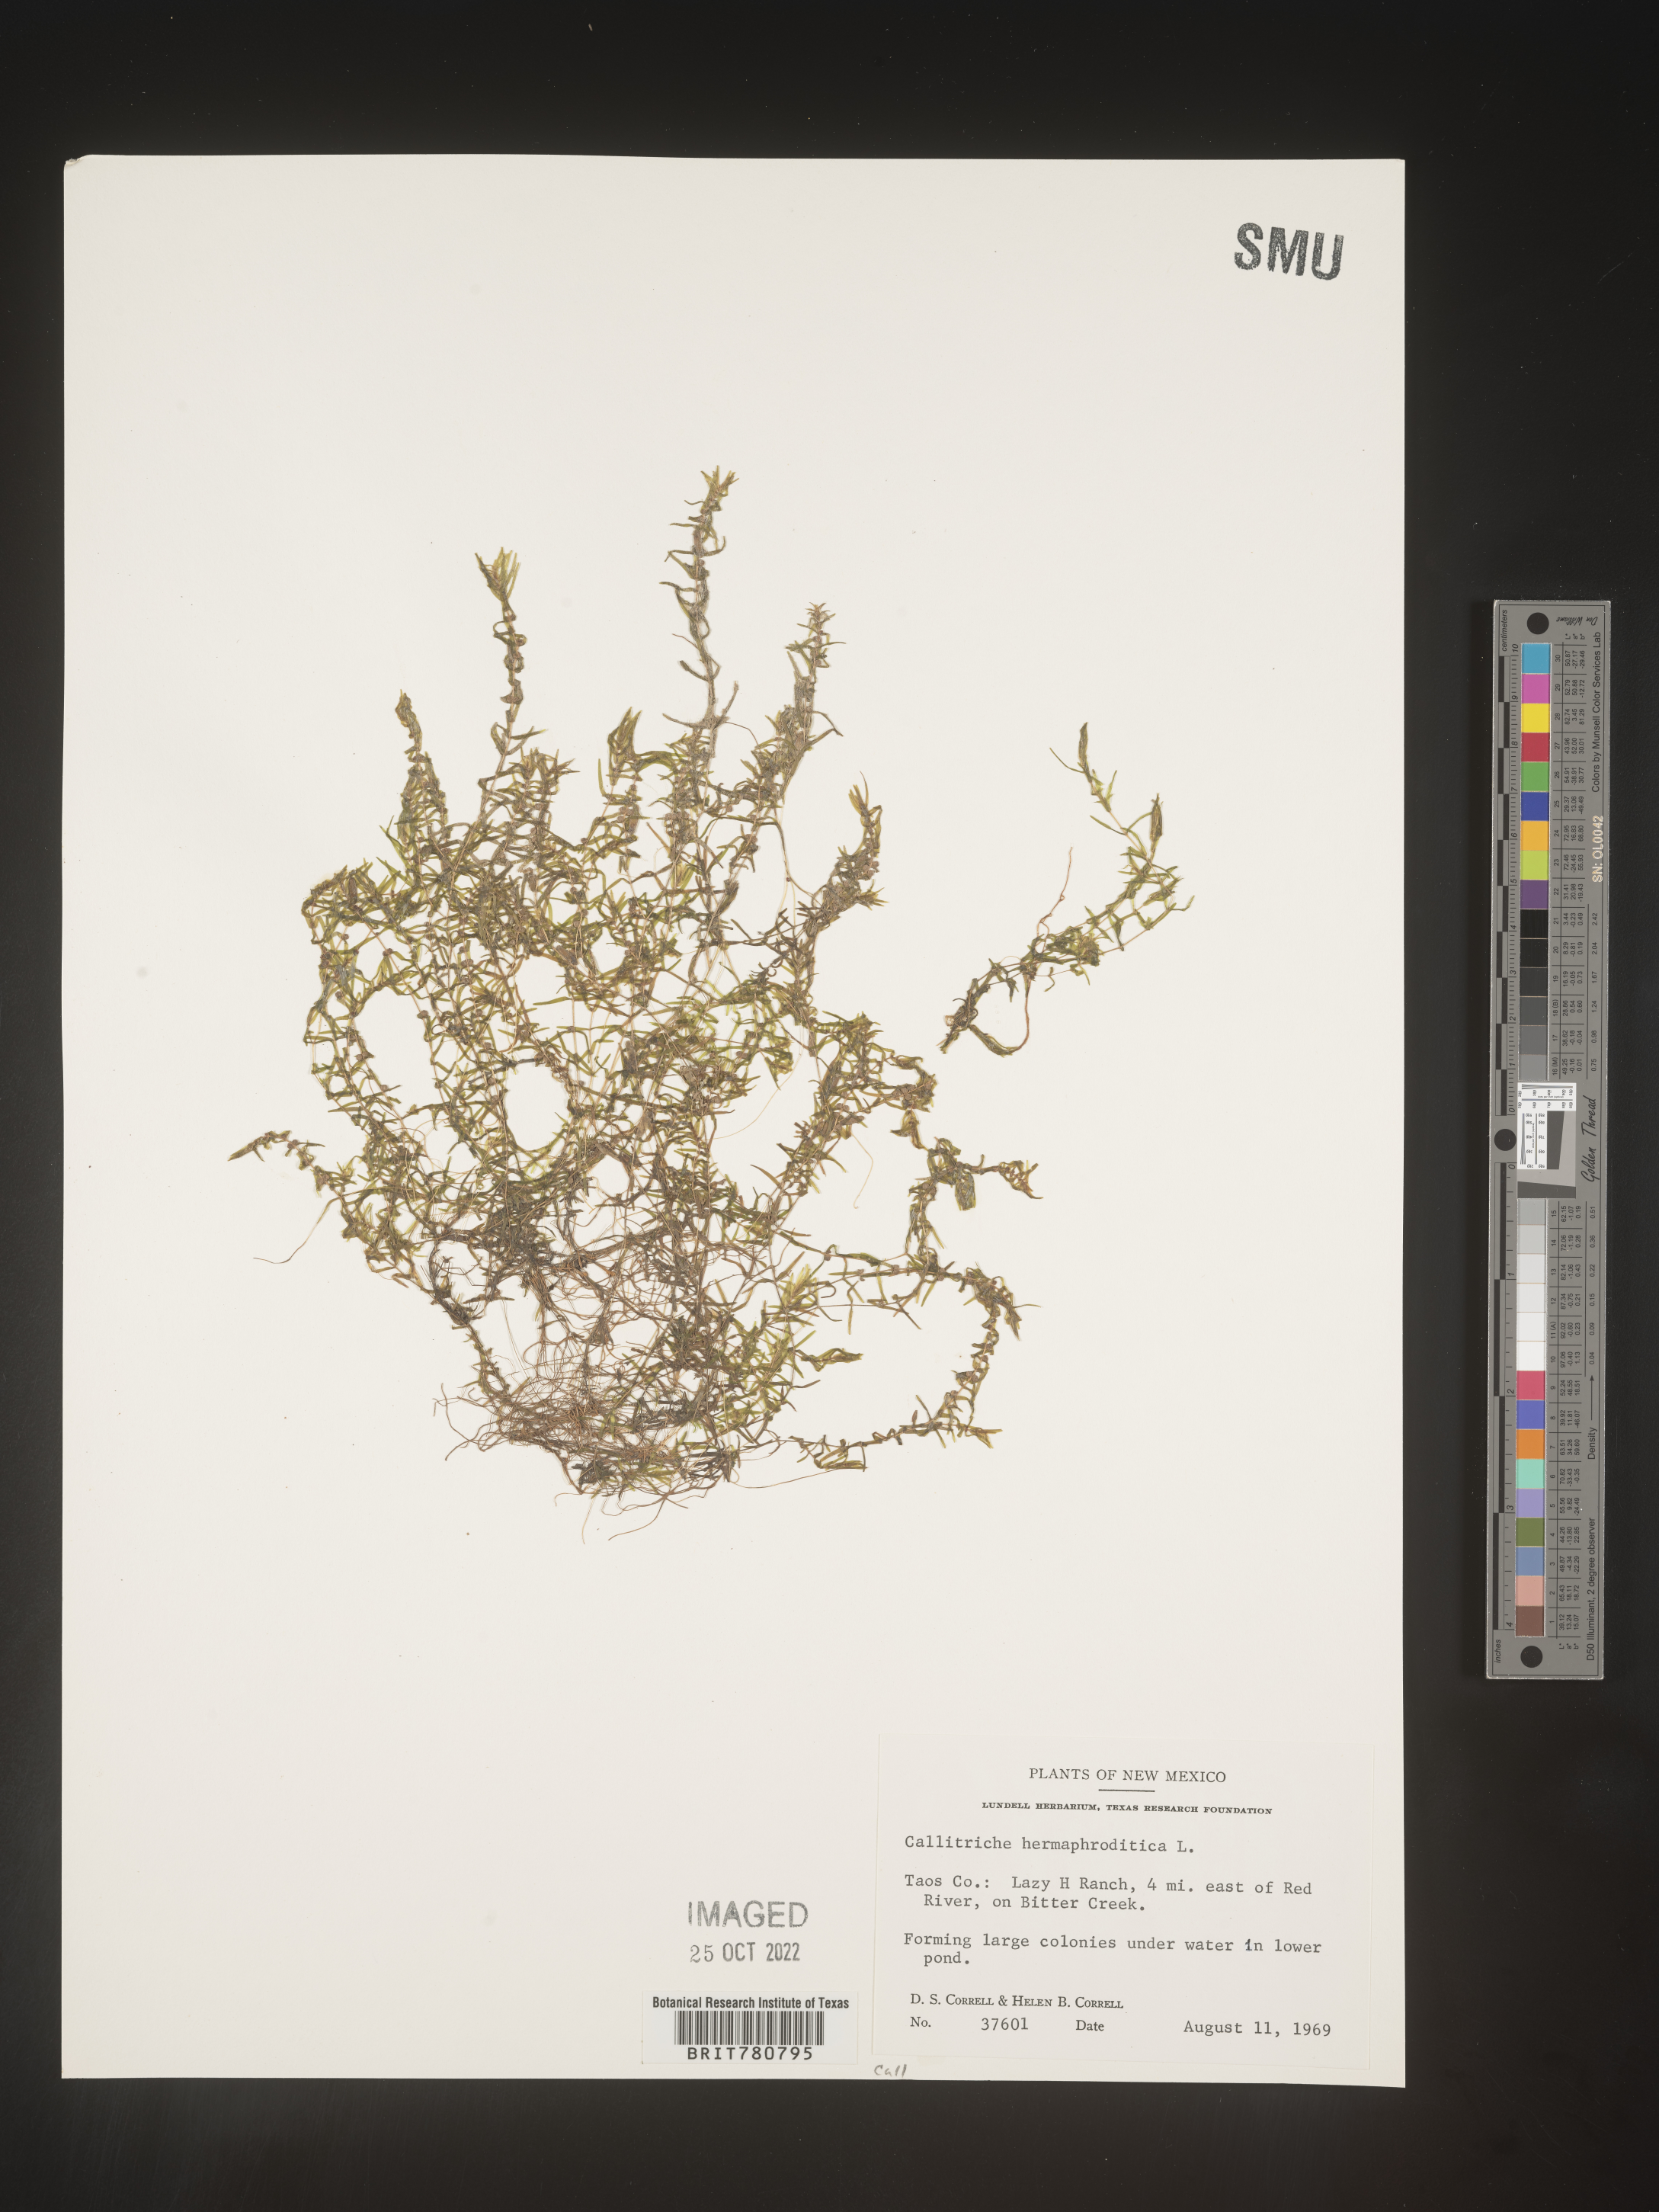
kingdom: Plantae
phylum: Tracheophyta
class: Magnoliopsida
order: Lamiales
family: Plantaginaceae
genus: Callitriche
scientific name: Callitriche
